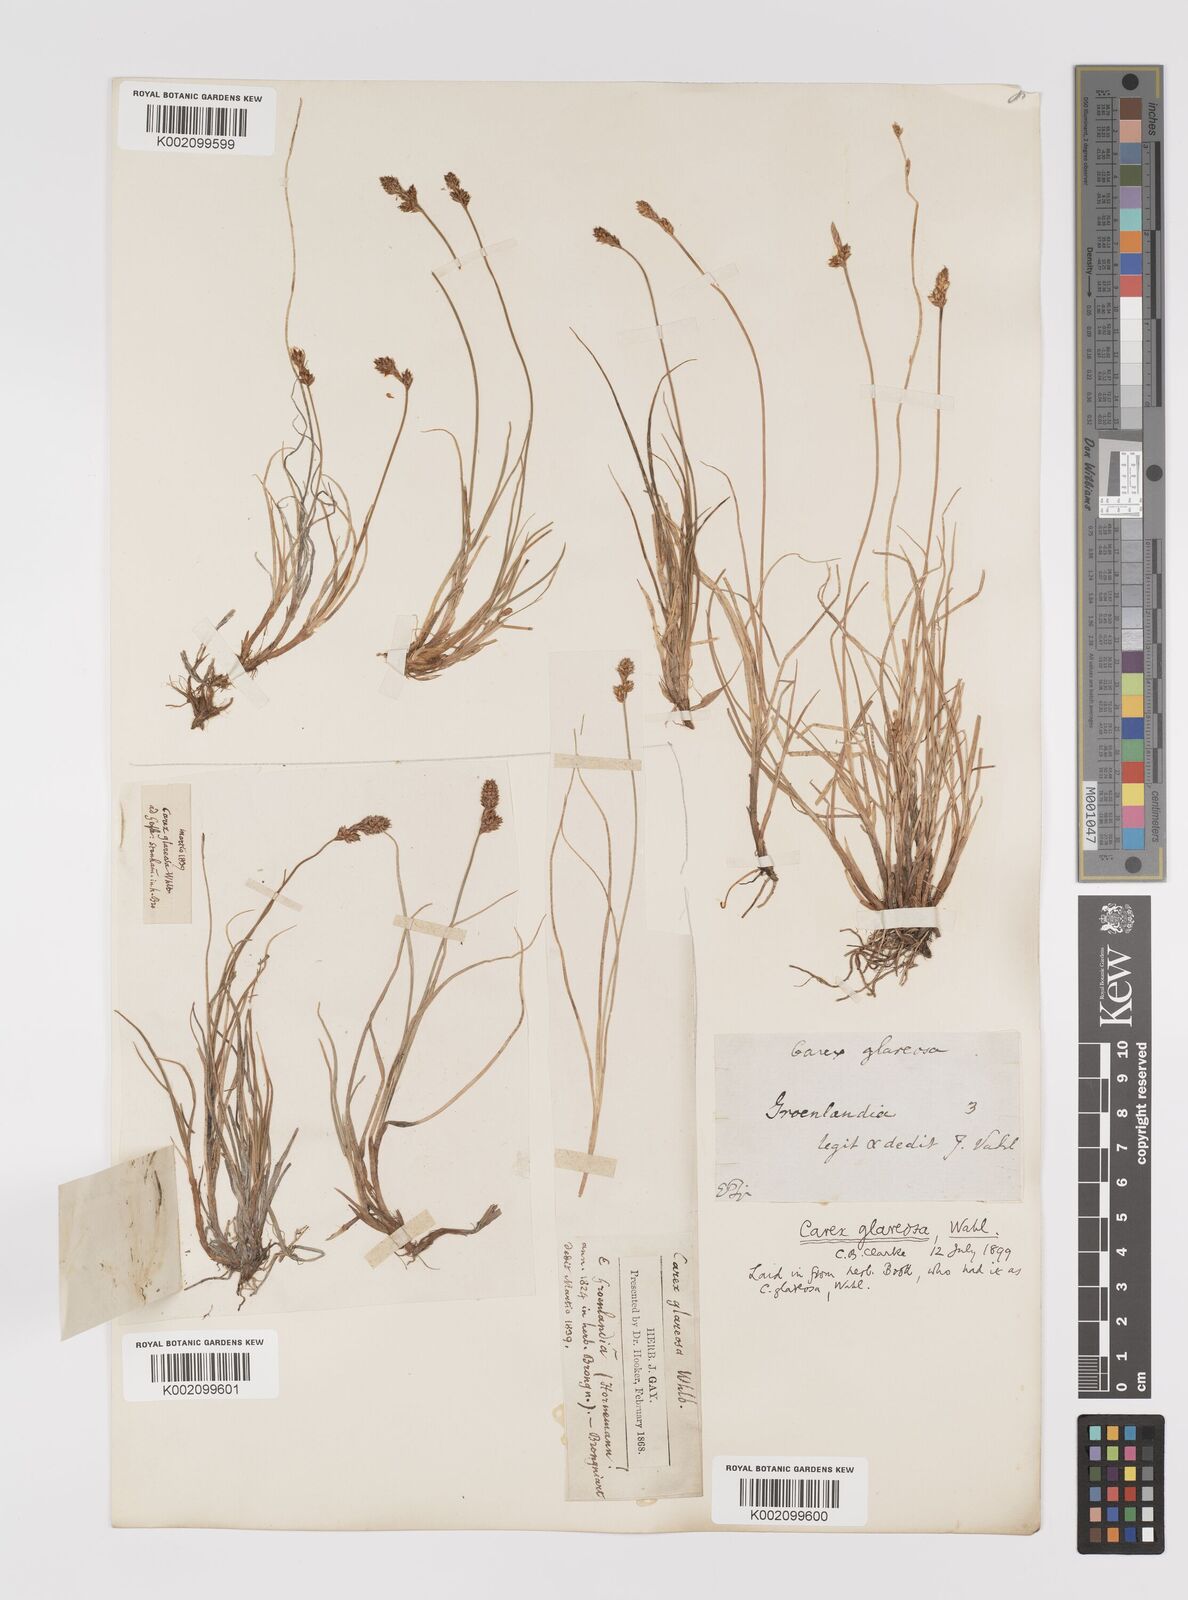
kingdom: Plantae
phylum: Tracheophyta
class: Liliopsida
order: Poales
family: Cyperaceae
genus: Carex
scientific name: Carex glareosa
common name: Clustered sedge
